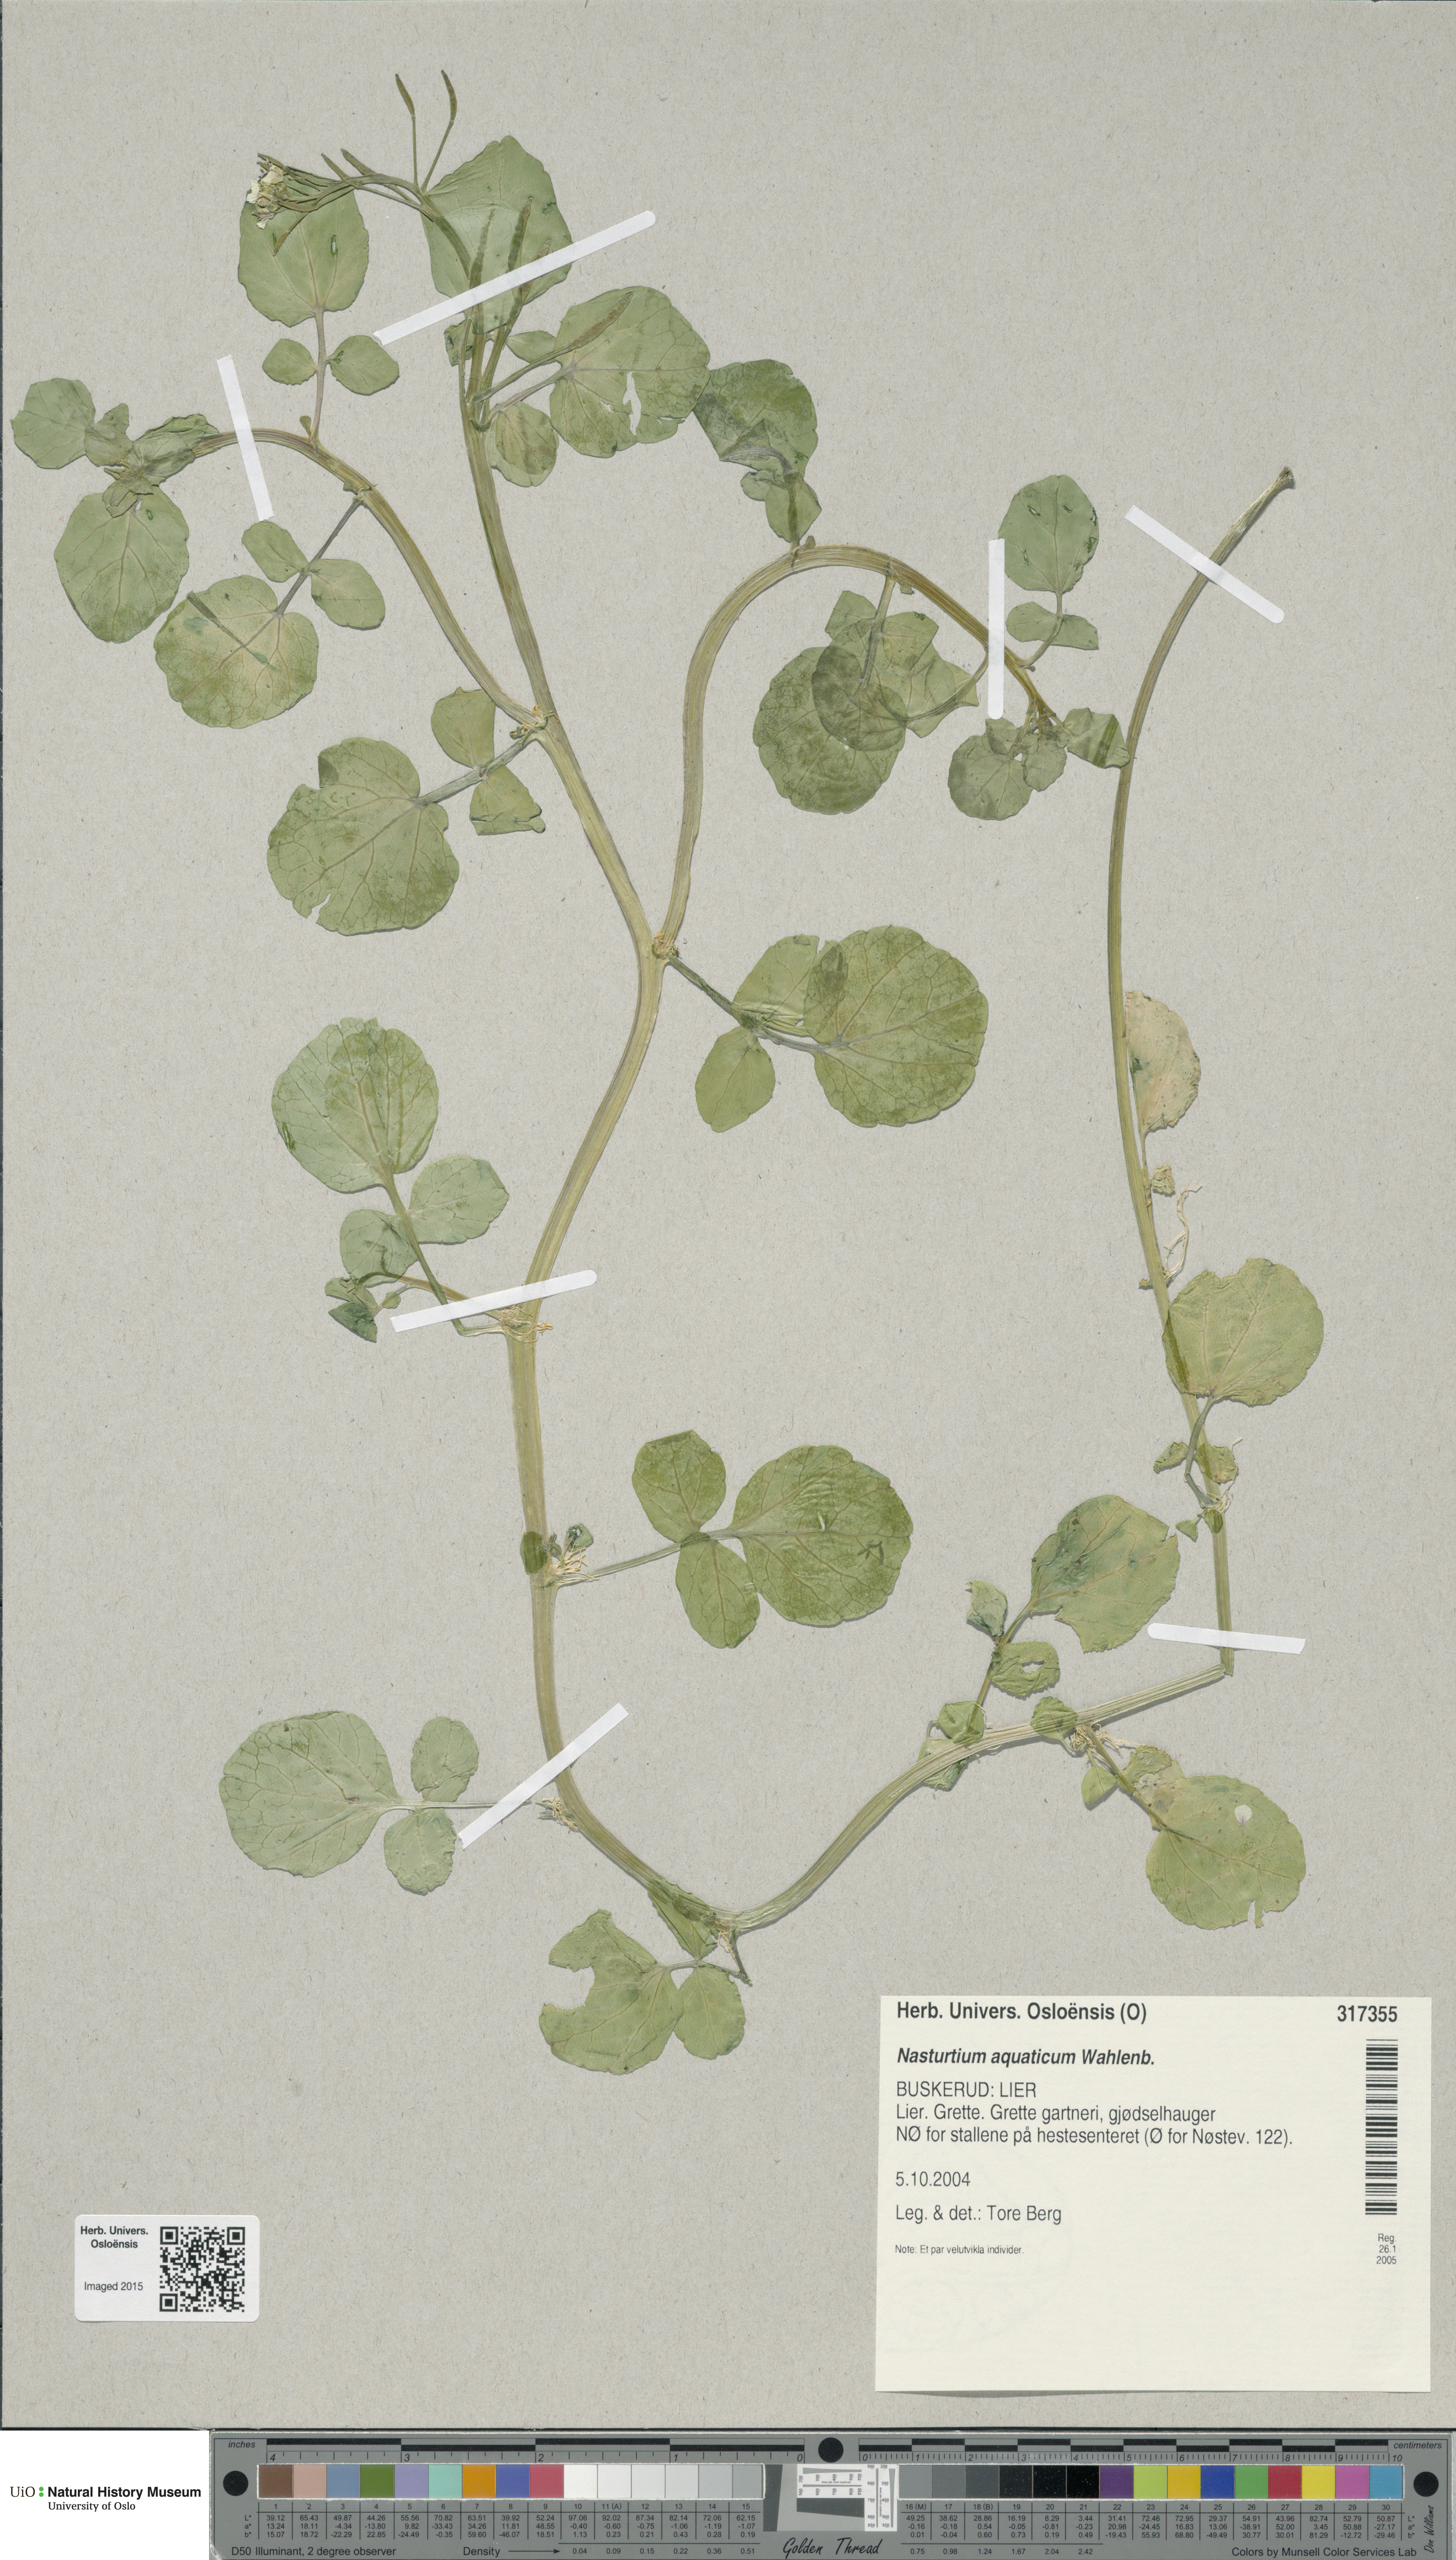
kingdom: Plantae
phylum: Tracheophyta
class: Magnoliopsida
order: Brassicales
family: Brassicaceae
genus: Nasturtium
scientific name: Nasturtium officinale
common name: Watercress
